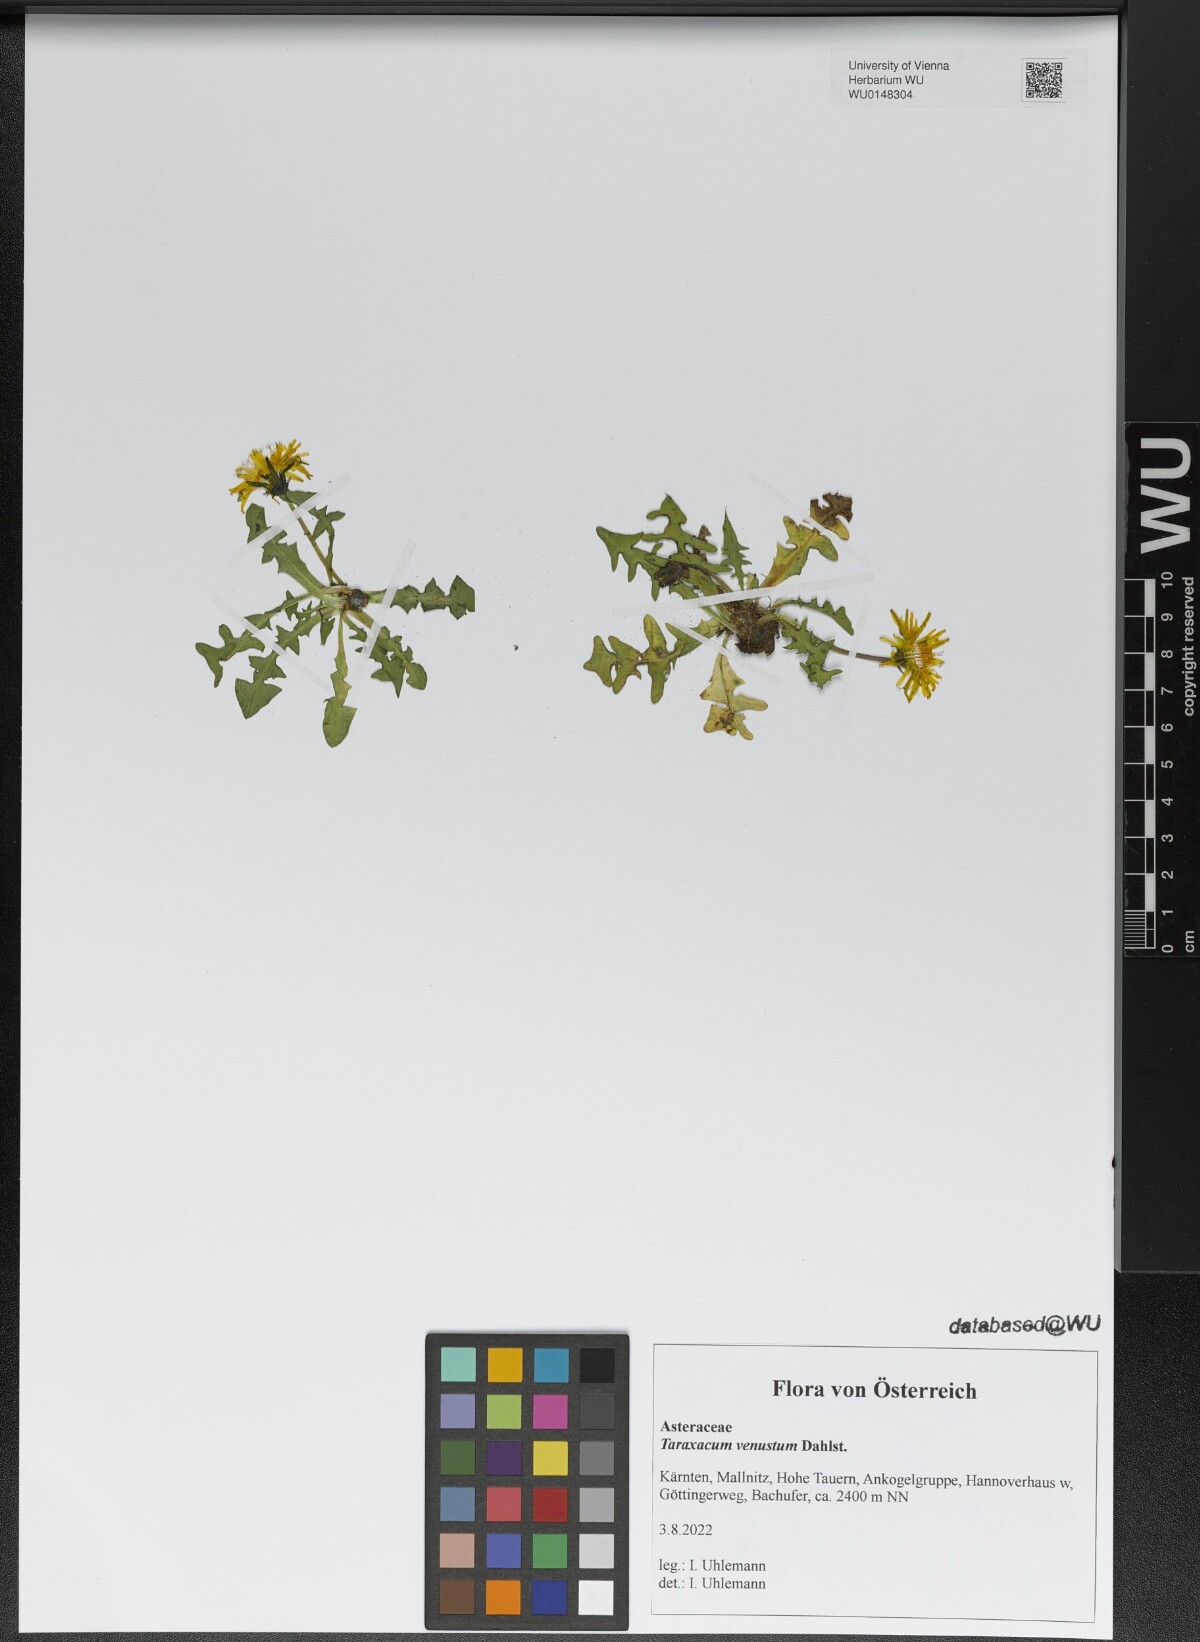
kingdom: Plantae
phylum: Tracheophyta
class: Magnoliopsida
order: Asterales
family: Asteraceae
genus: Taraxacum
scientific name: Taraxacum venustum
